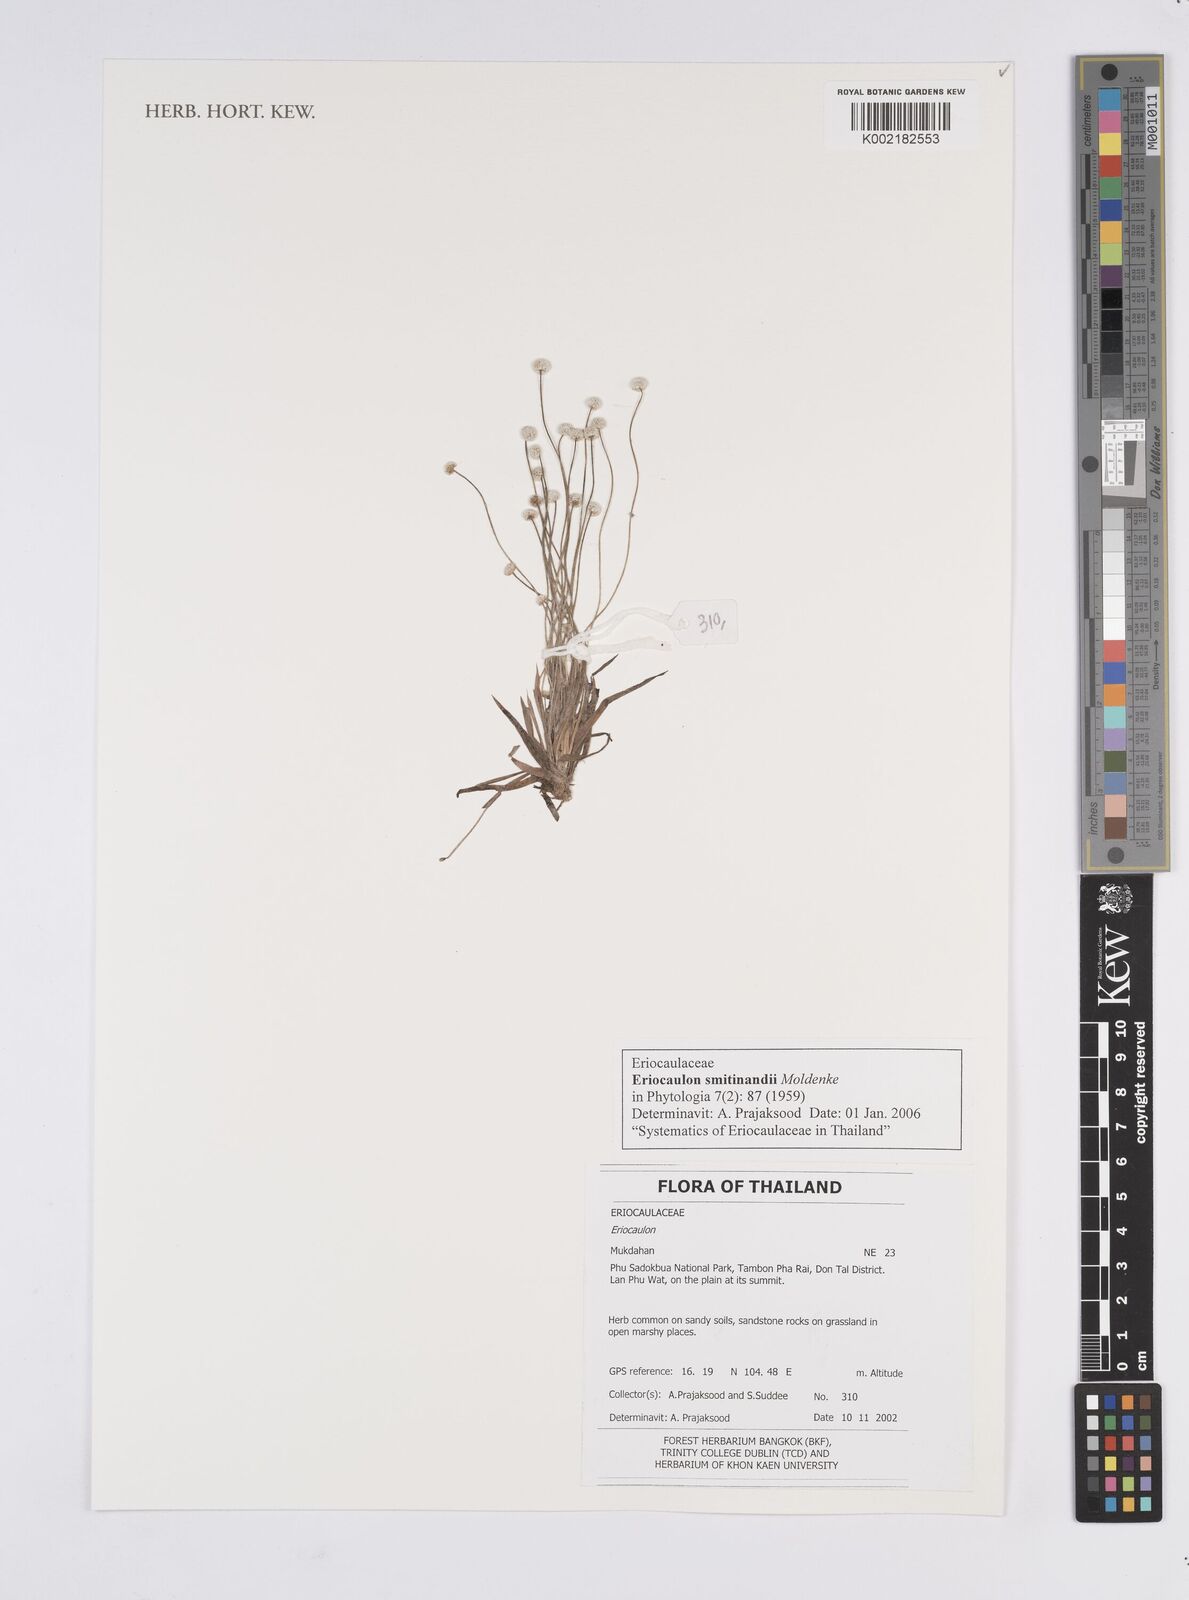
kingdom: Plantae
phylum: Tracheophyta
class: Liliopsida
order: Poales
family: Eriocaulaceae
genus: Eriocaulon
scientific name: Eriocaulon smitinandii
